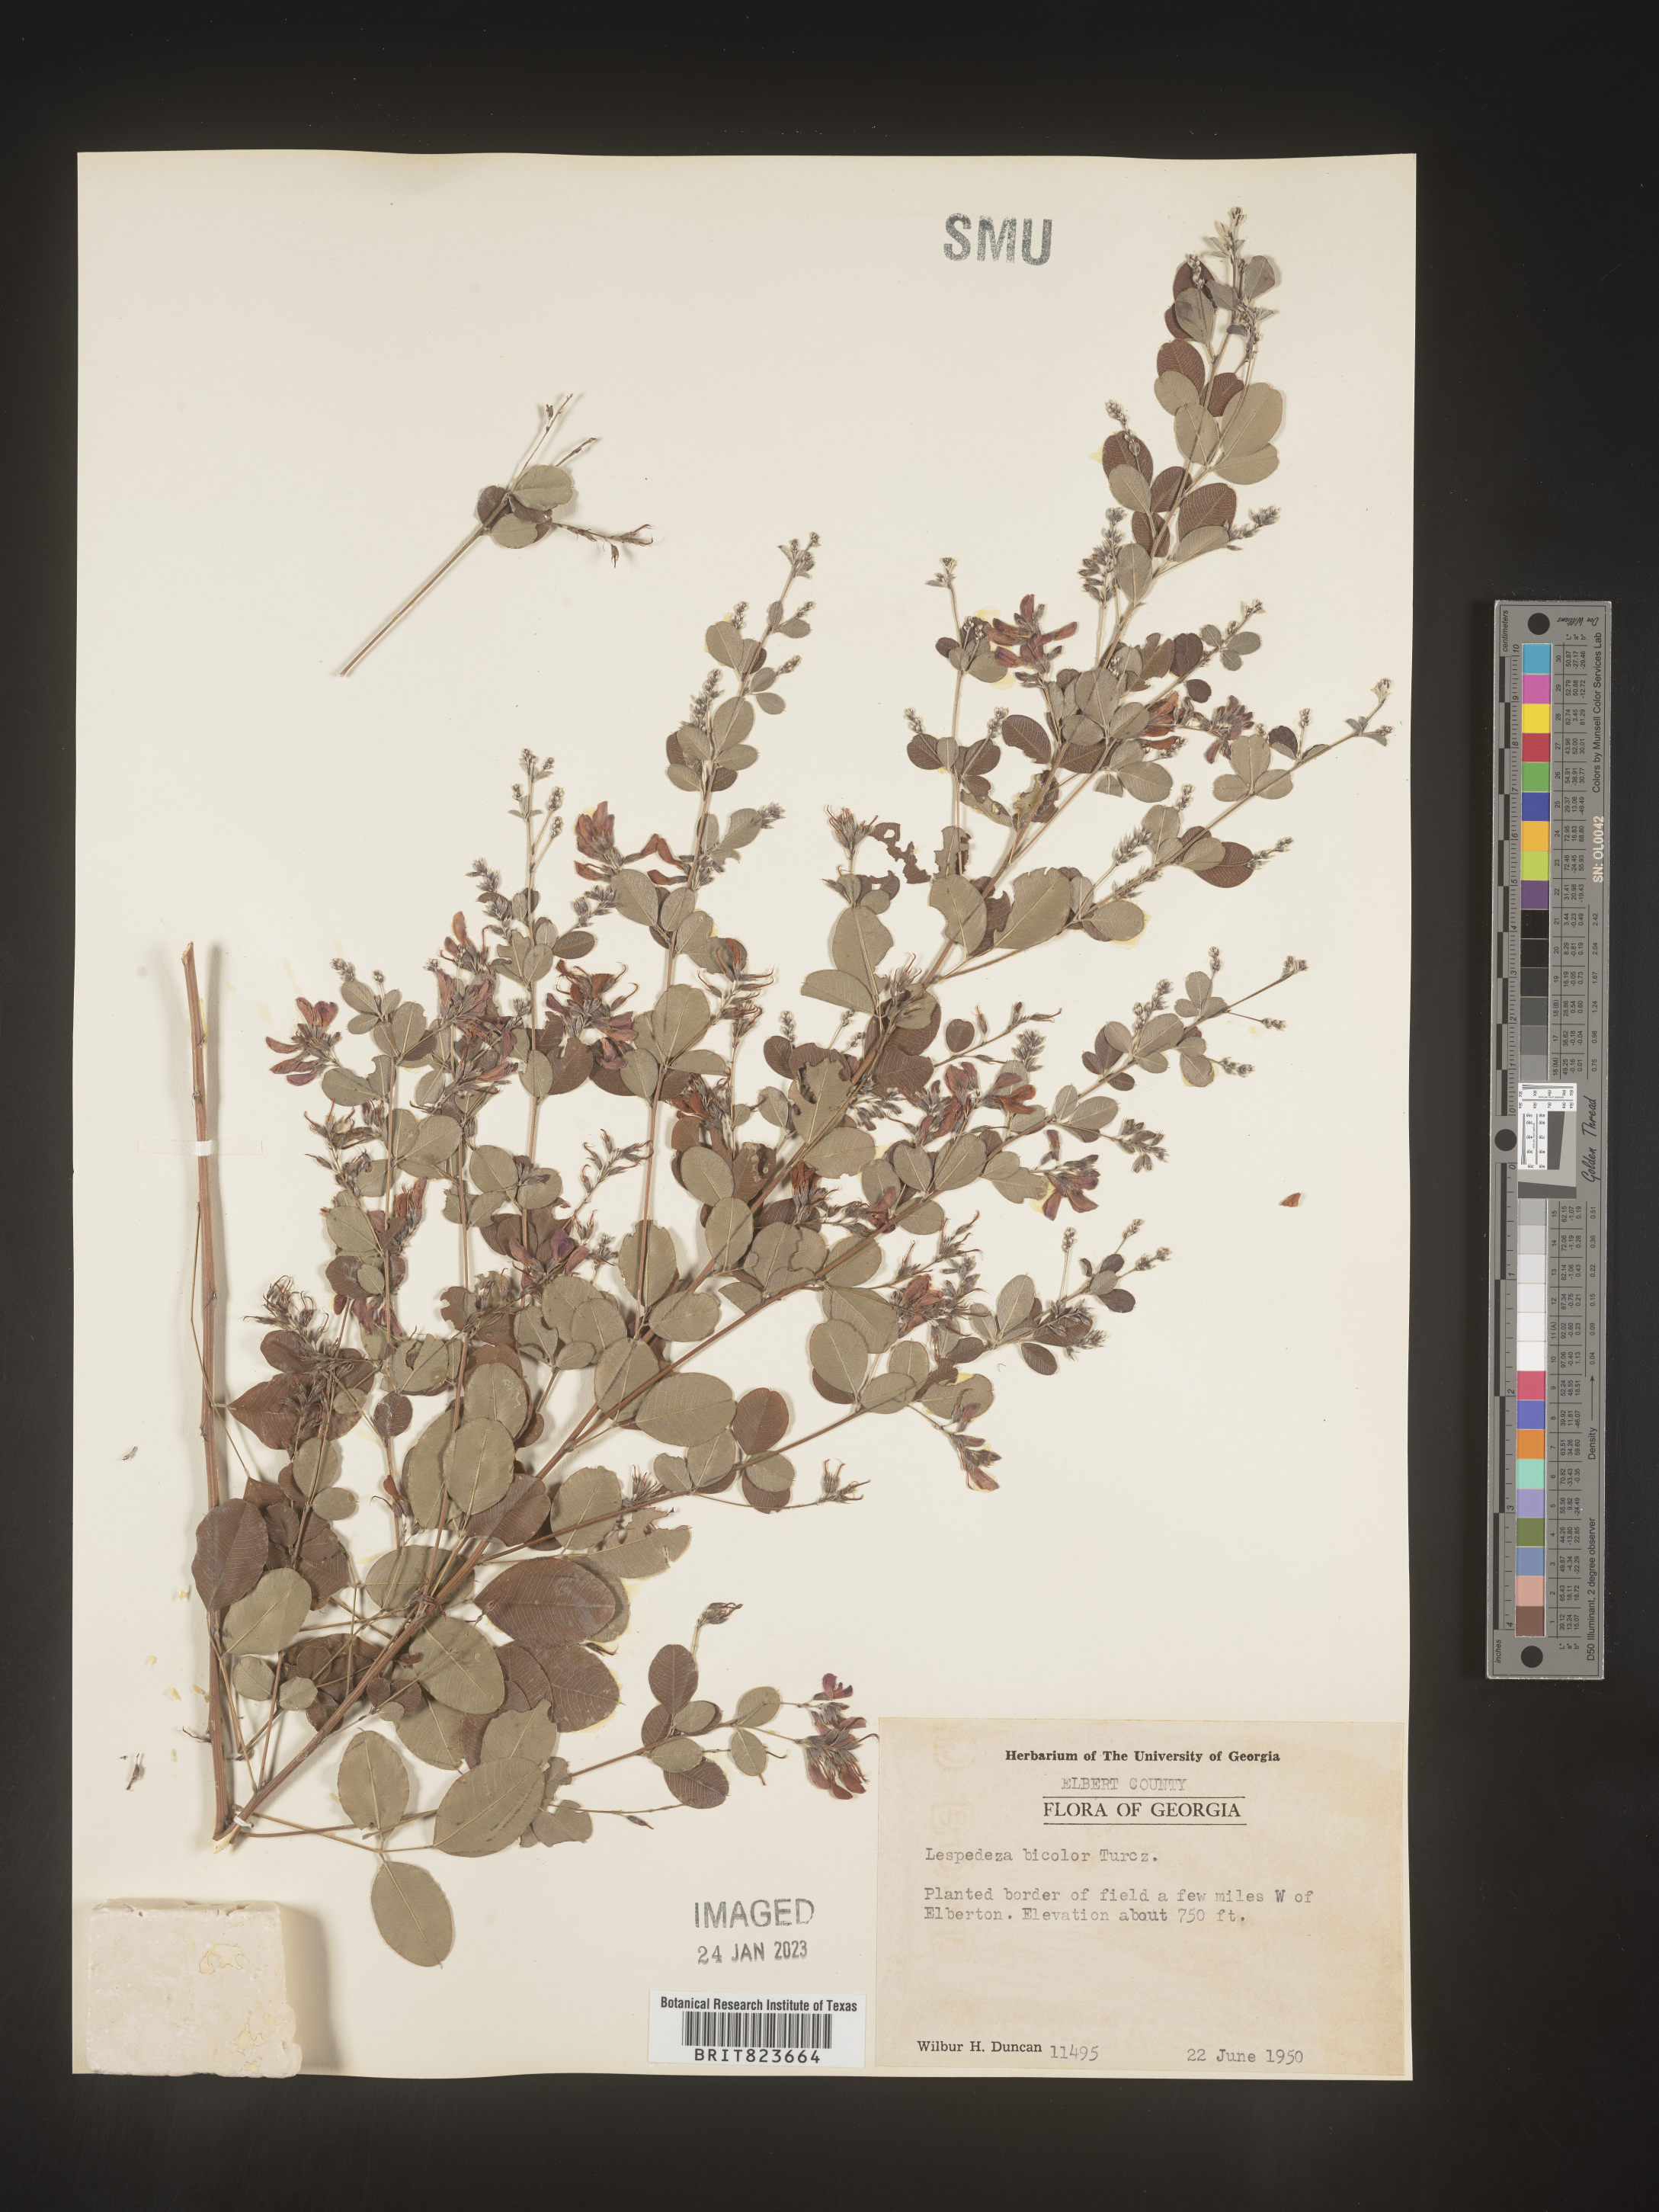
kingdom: Plantae
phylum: Tracheophyta
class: Magnoliopsida
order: Fabales
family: Fabaceae
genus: Lespedeza
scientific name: Lespedeza
